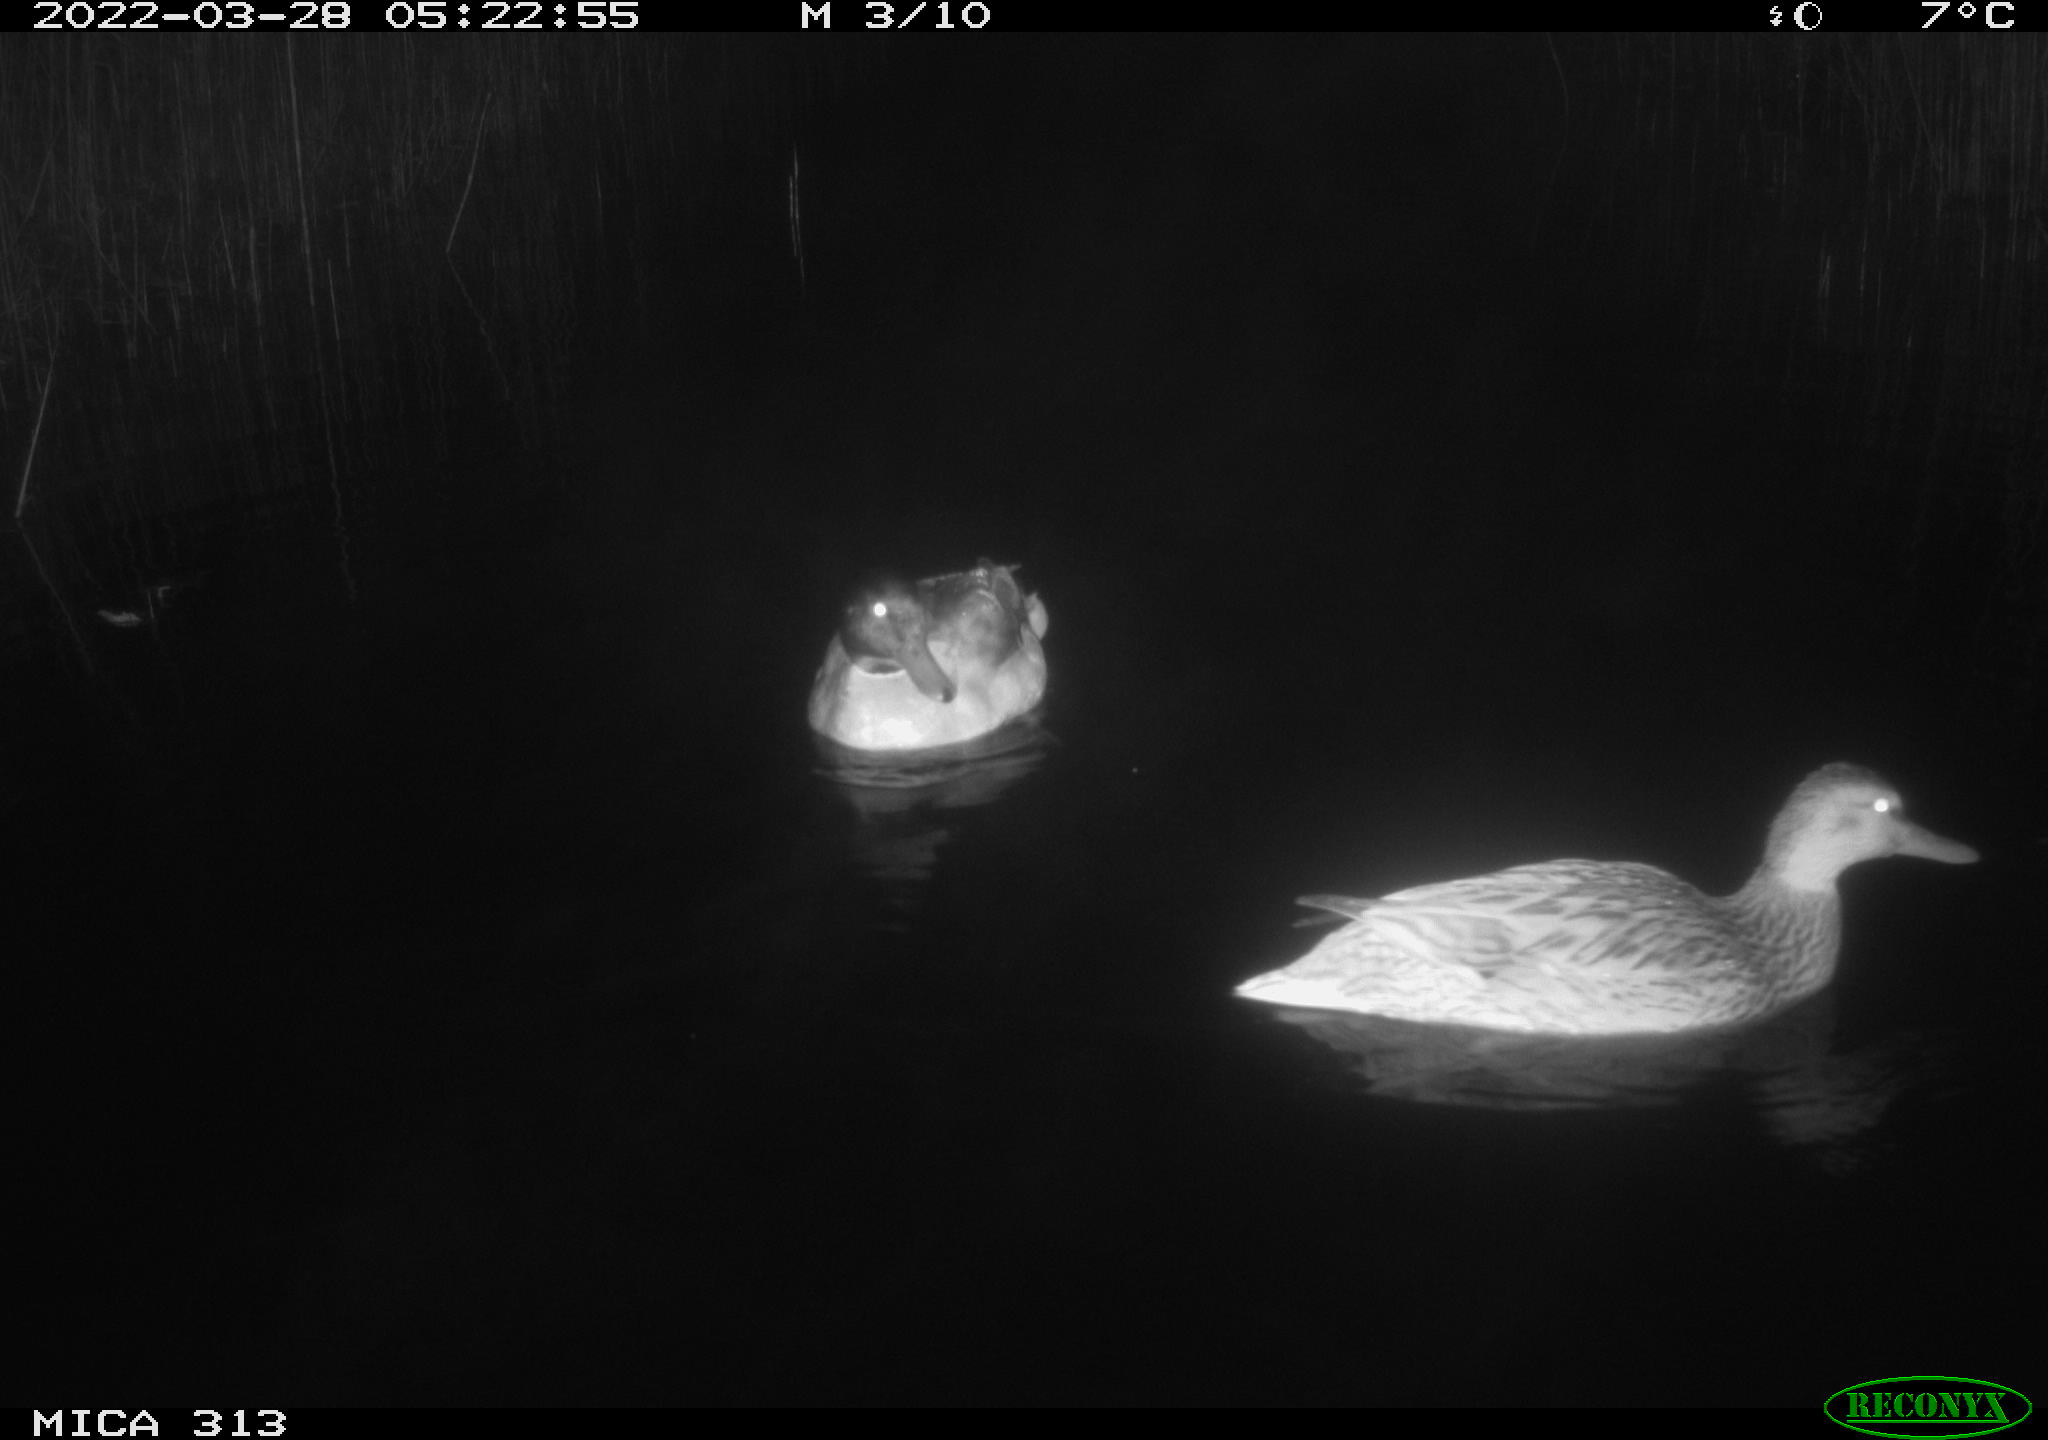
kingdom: Animalia
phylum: Chordata
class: Aves
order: Anseriformes
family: Anatidae
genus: Anas
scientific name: Anas platyrhynchos
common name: Mallard
